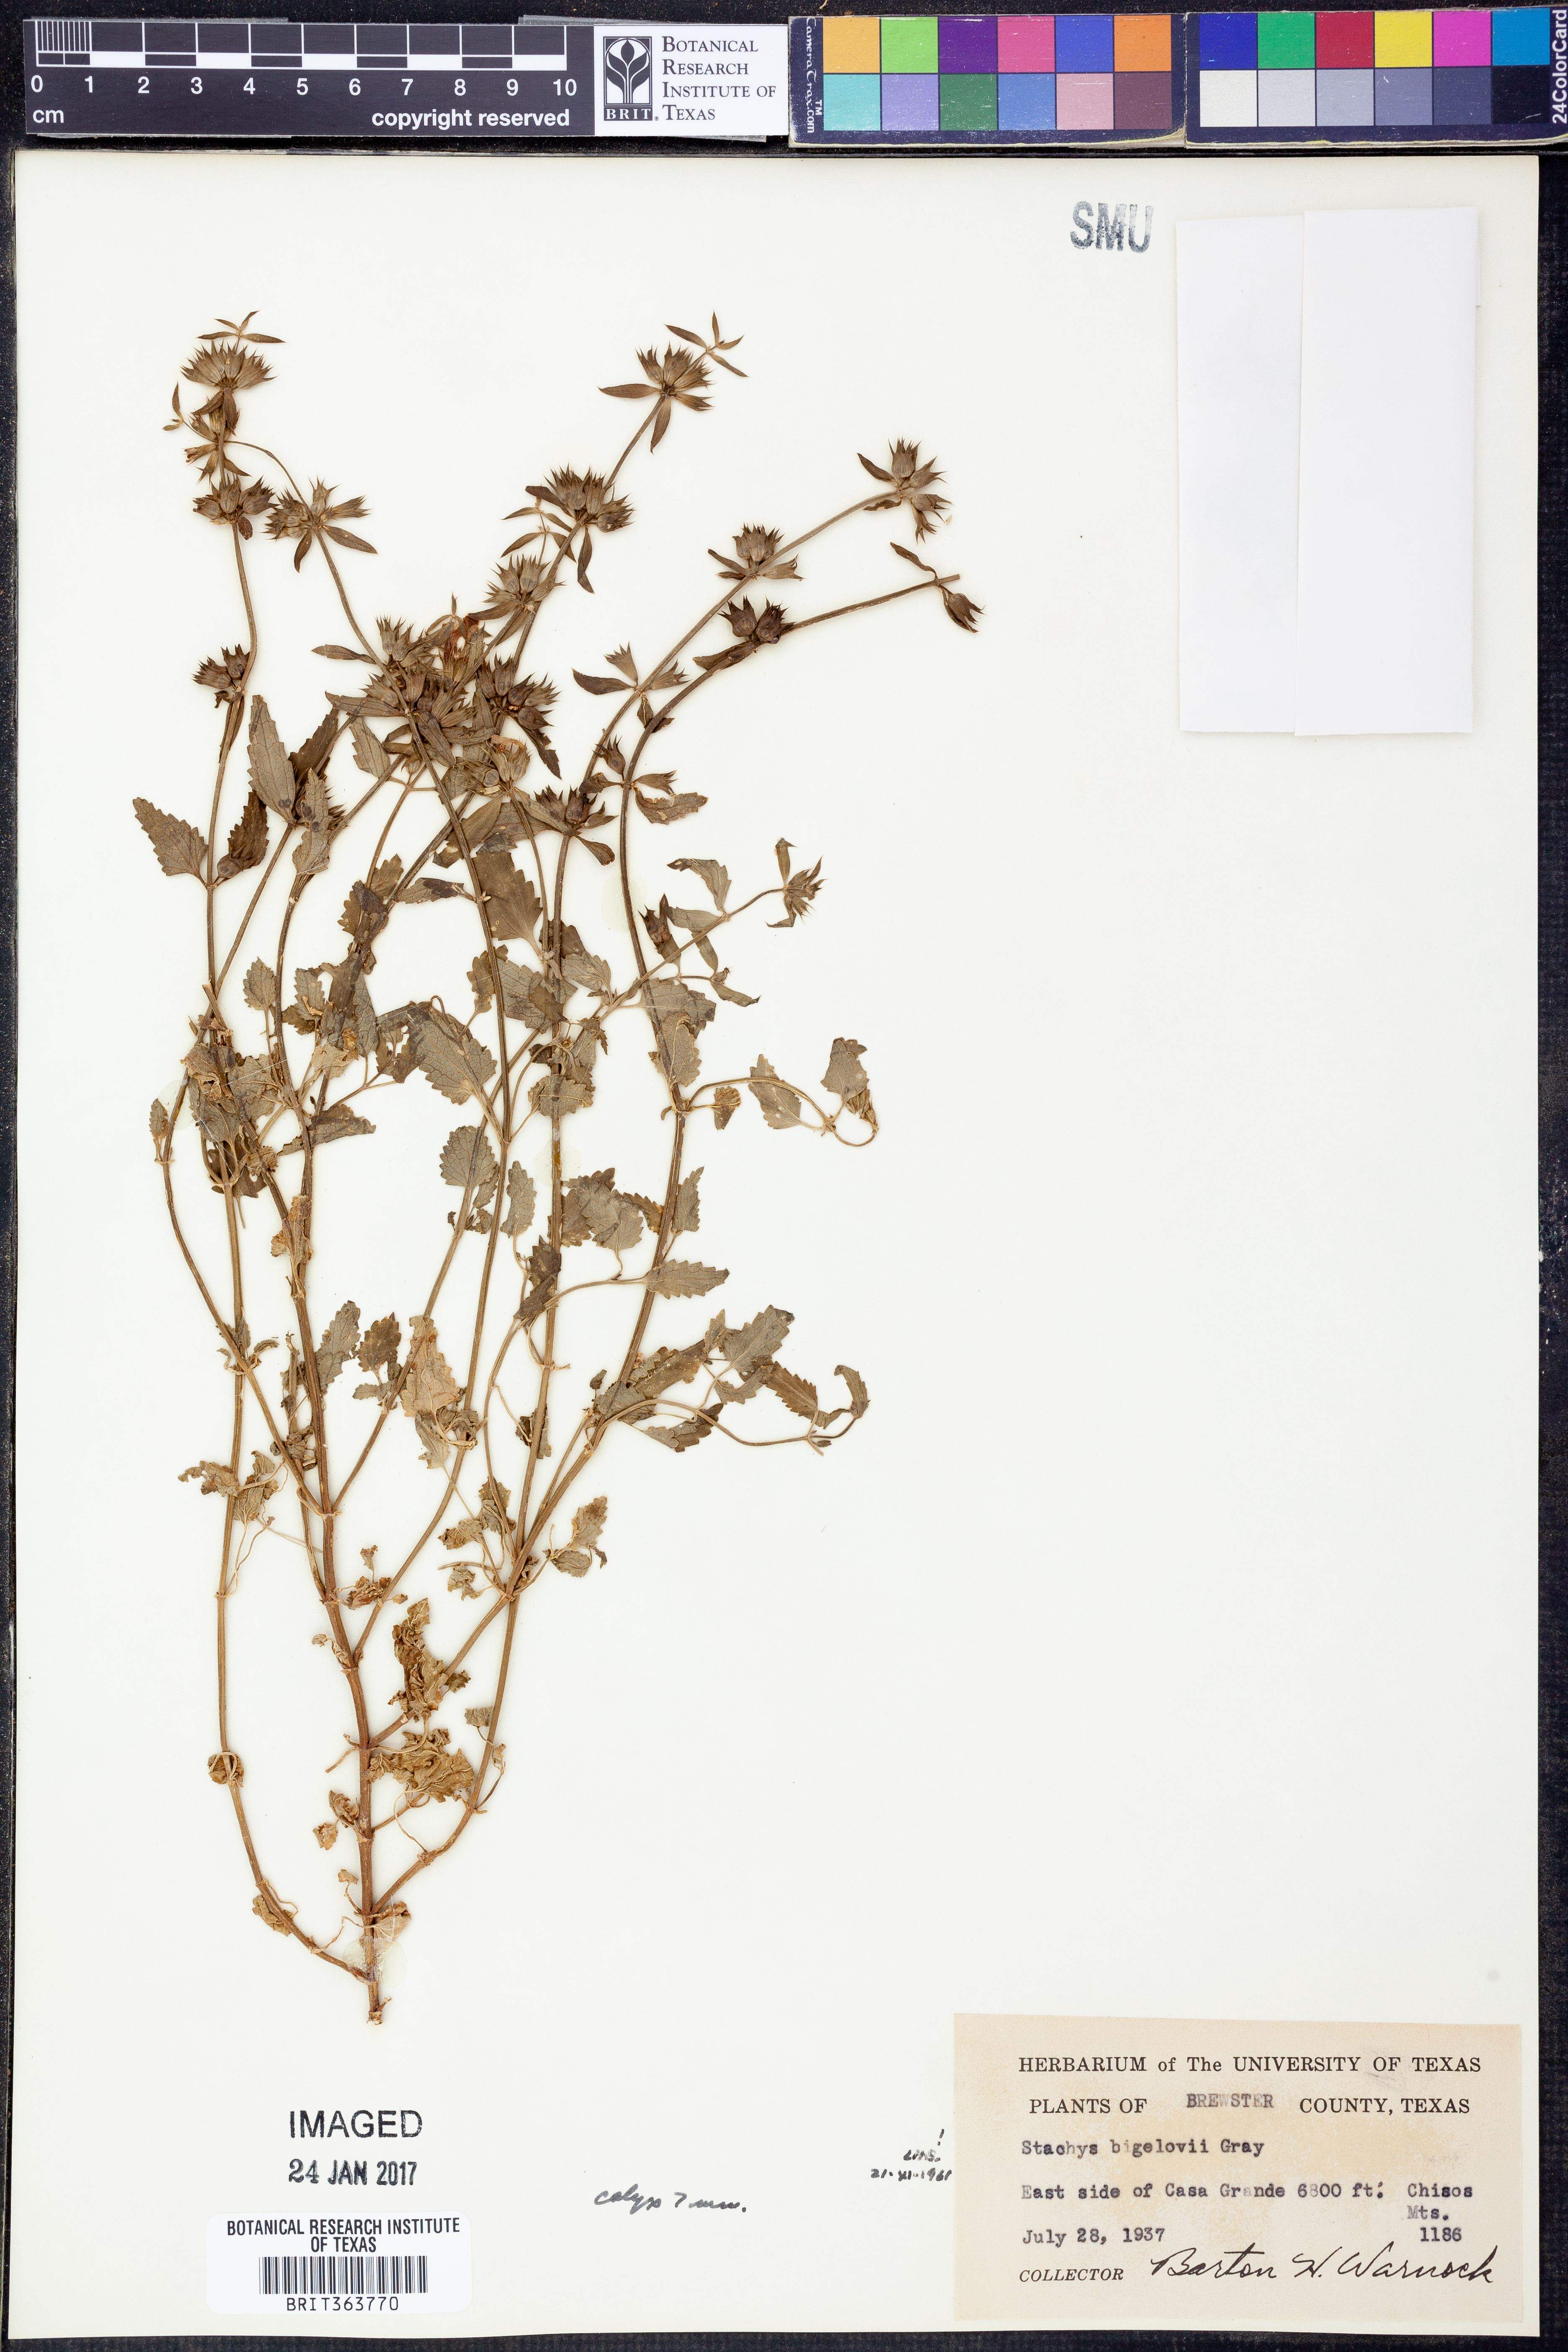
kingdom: Plantae
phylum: Tracheophyta
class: Magnoliopsida
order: Lamiales
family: Lamiaceae
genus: Stachys
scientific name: Stachys bigelovii
